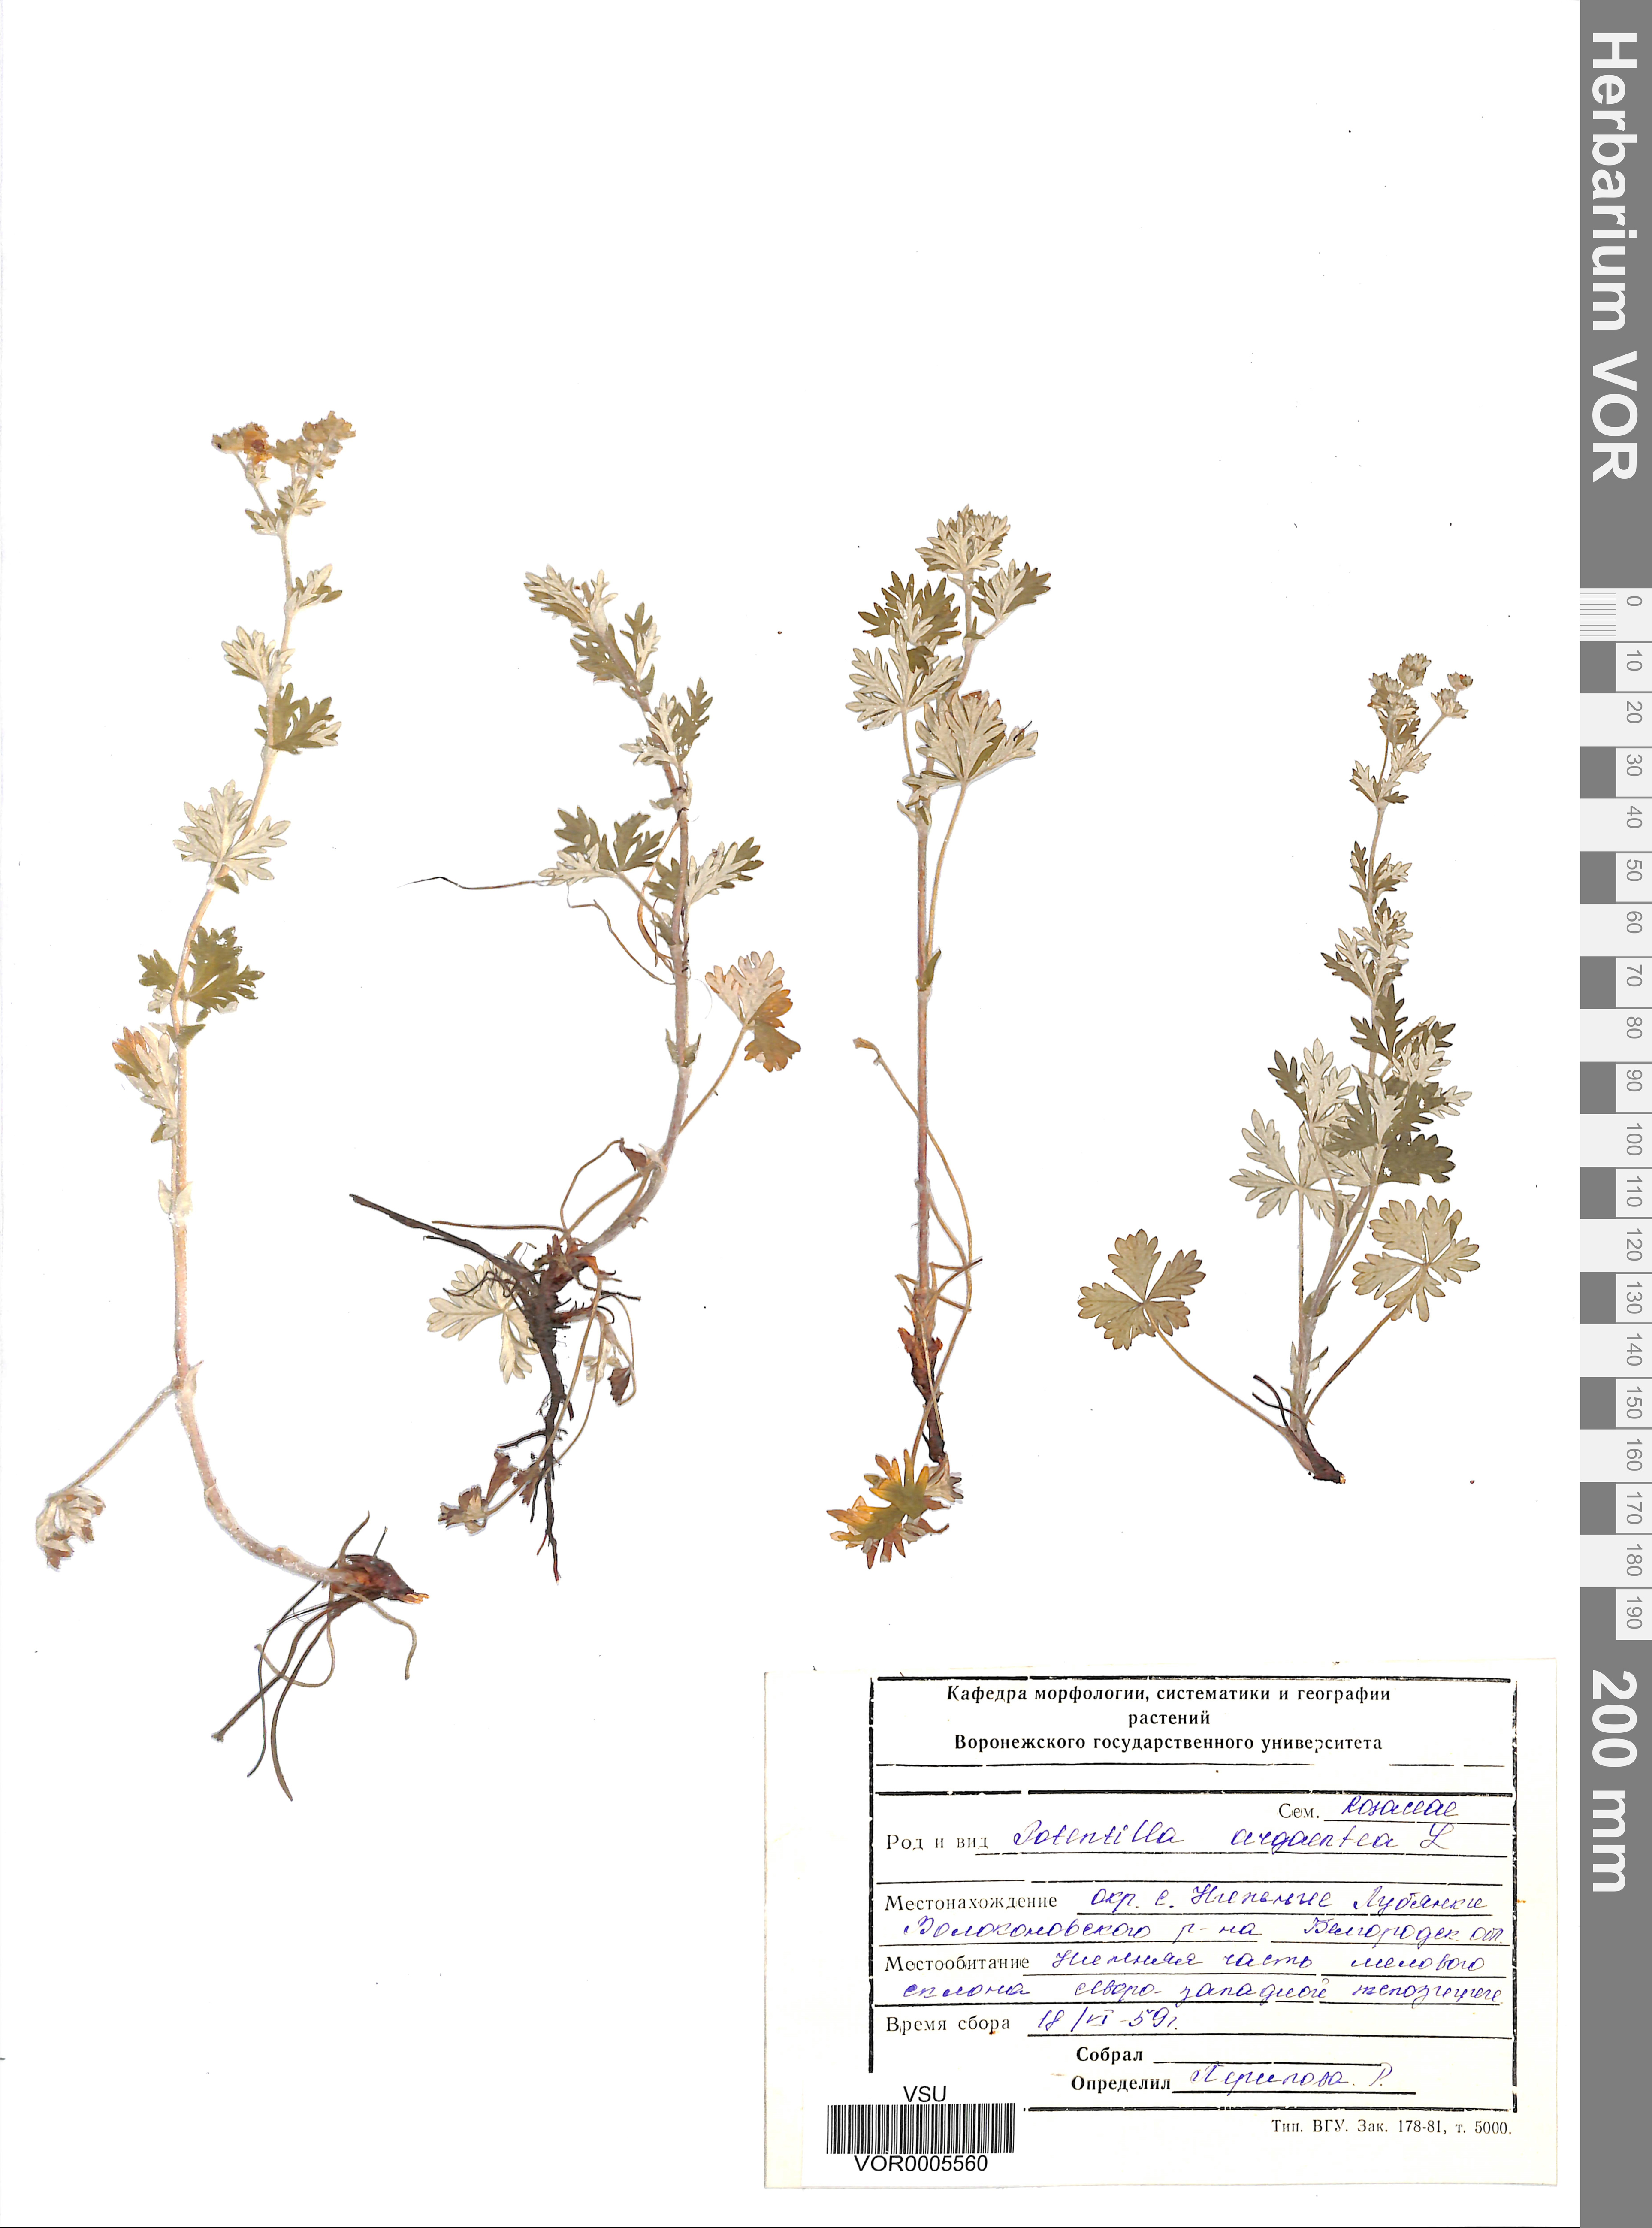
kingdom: Plantae
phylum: Tracheophyta
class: Magnoliopsida
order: Rosales
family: Rosaceae
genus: Potentilla
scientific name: Potentilla argentea
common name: Hoary cinquefoil
